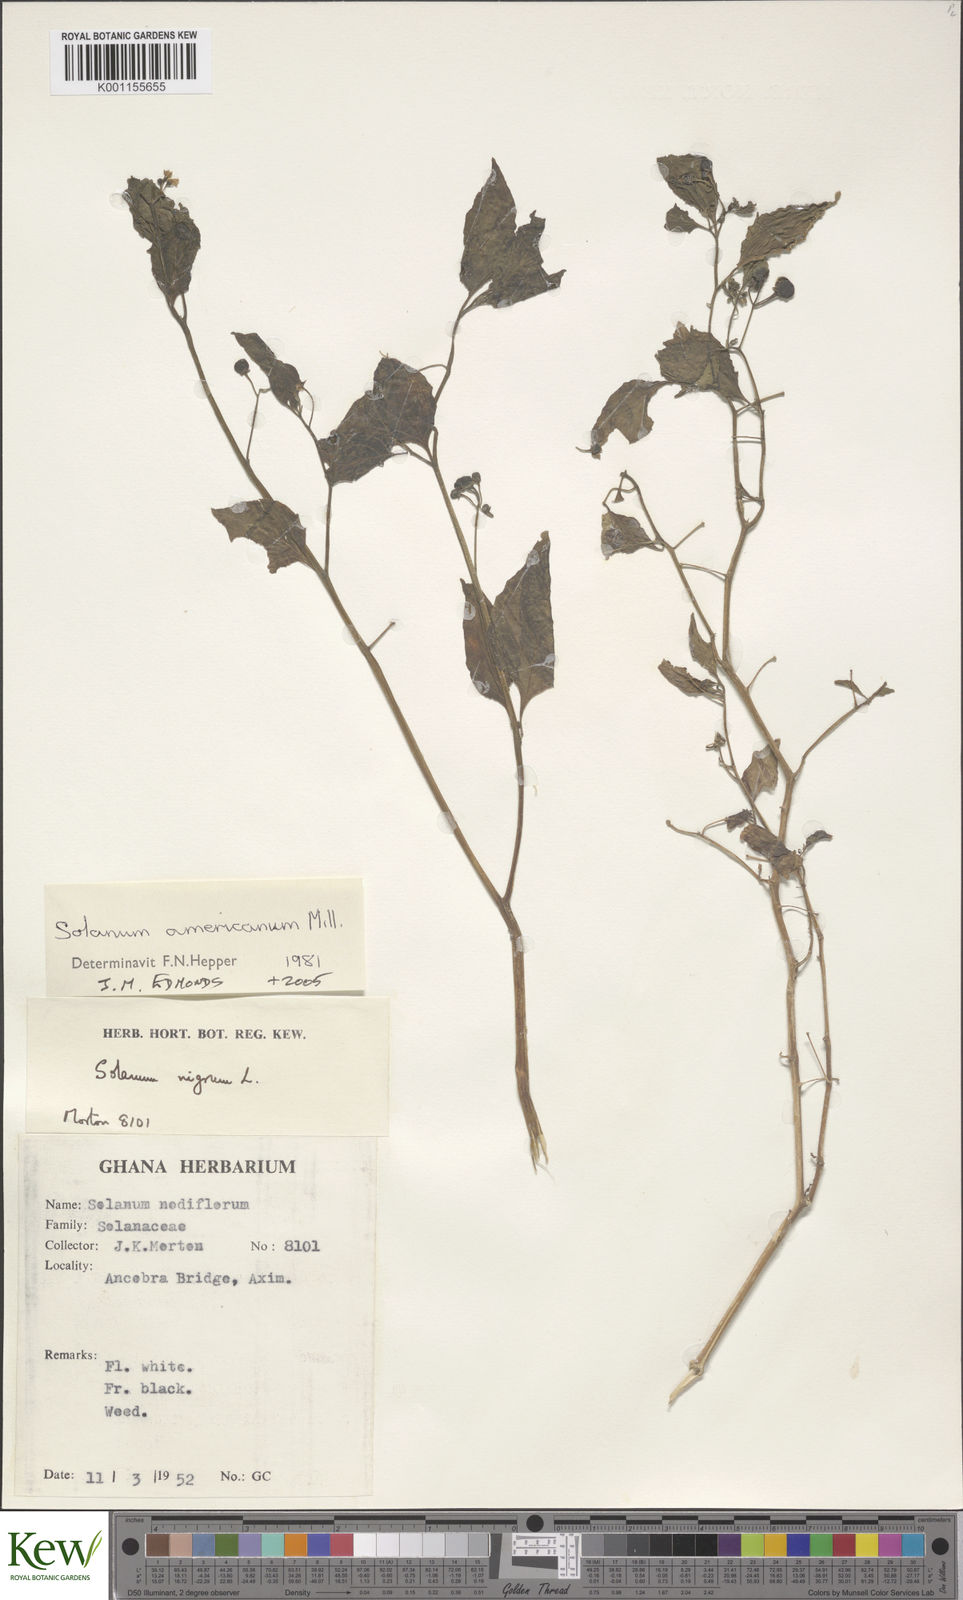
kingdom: Plantae
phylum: Tracheophyta
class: Magnoliopsida
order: Solanales
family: Solanaceae
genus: Solanum
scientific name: Solanum americanum
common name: American black nightshade
